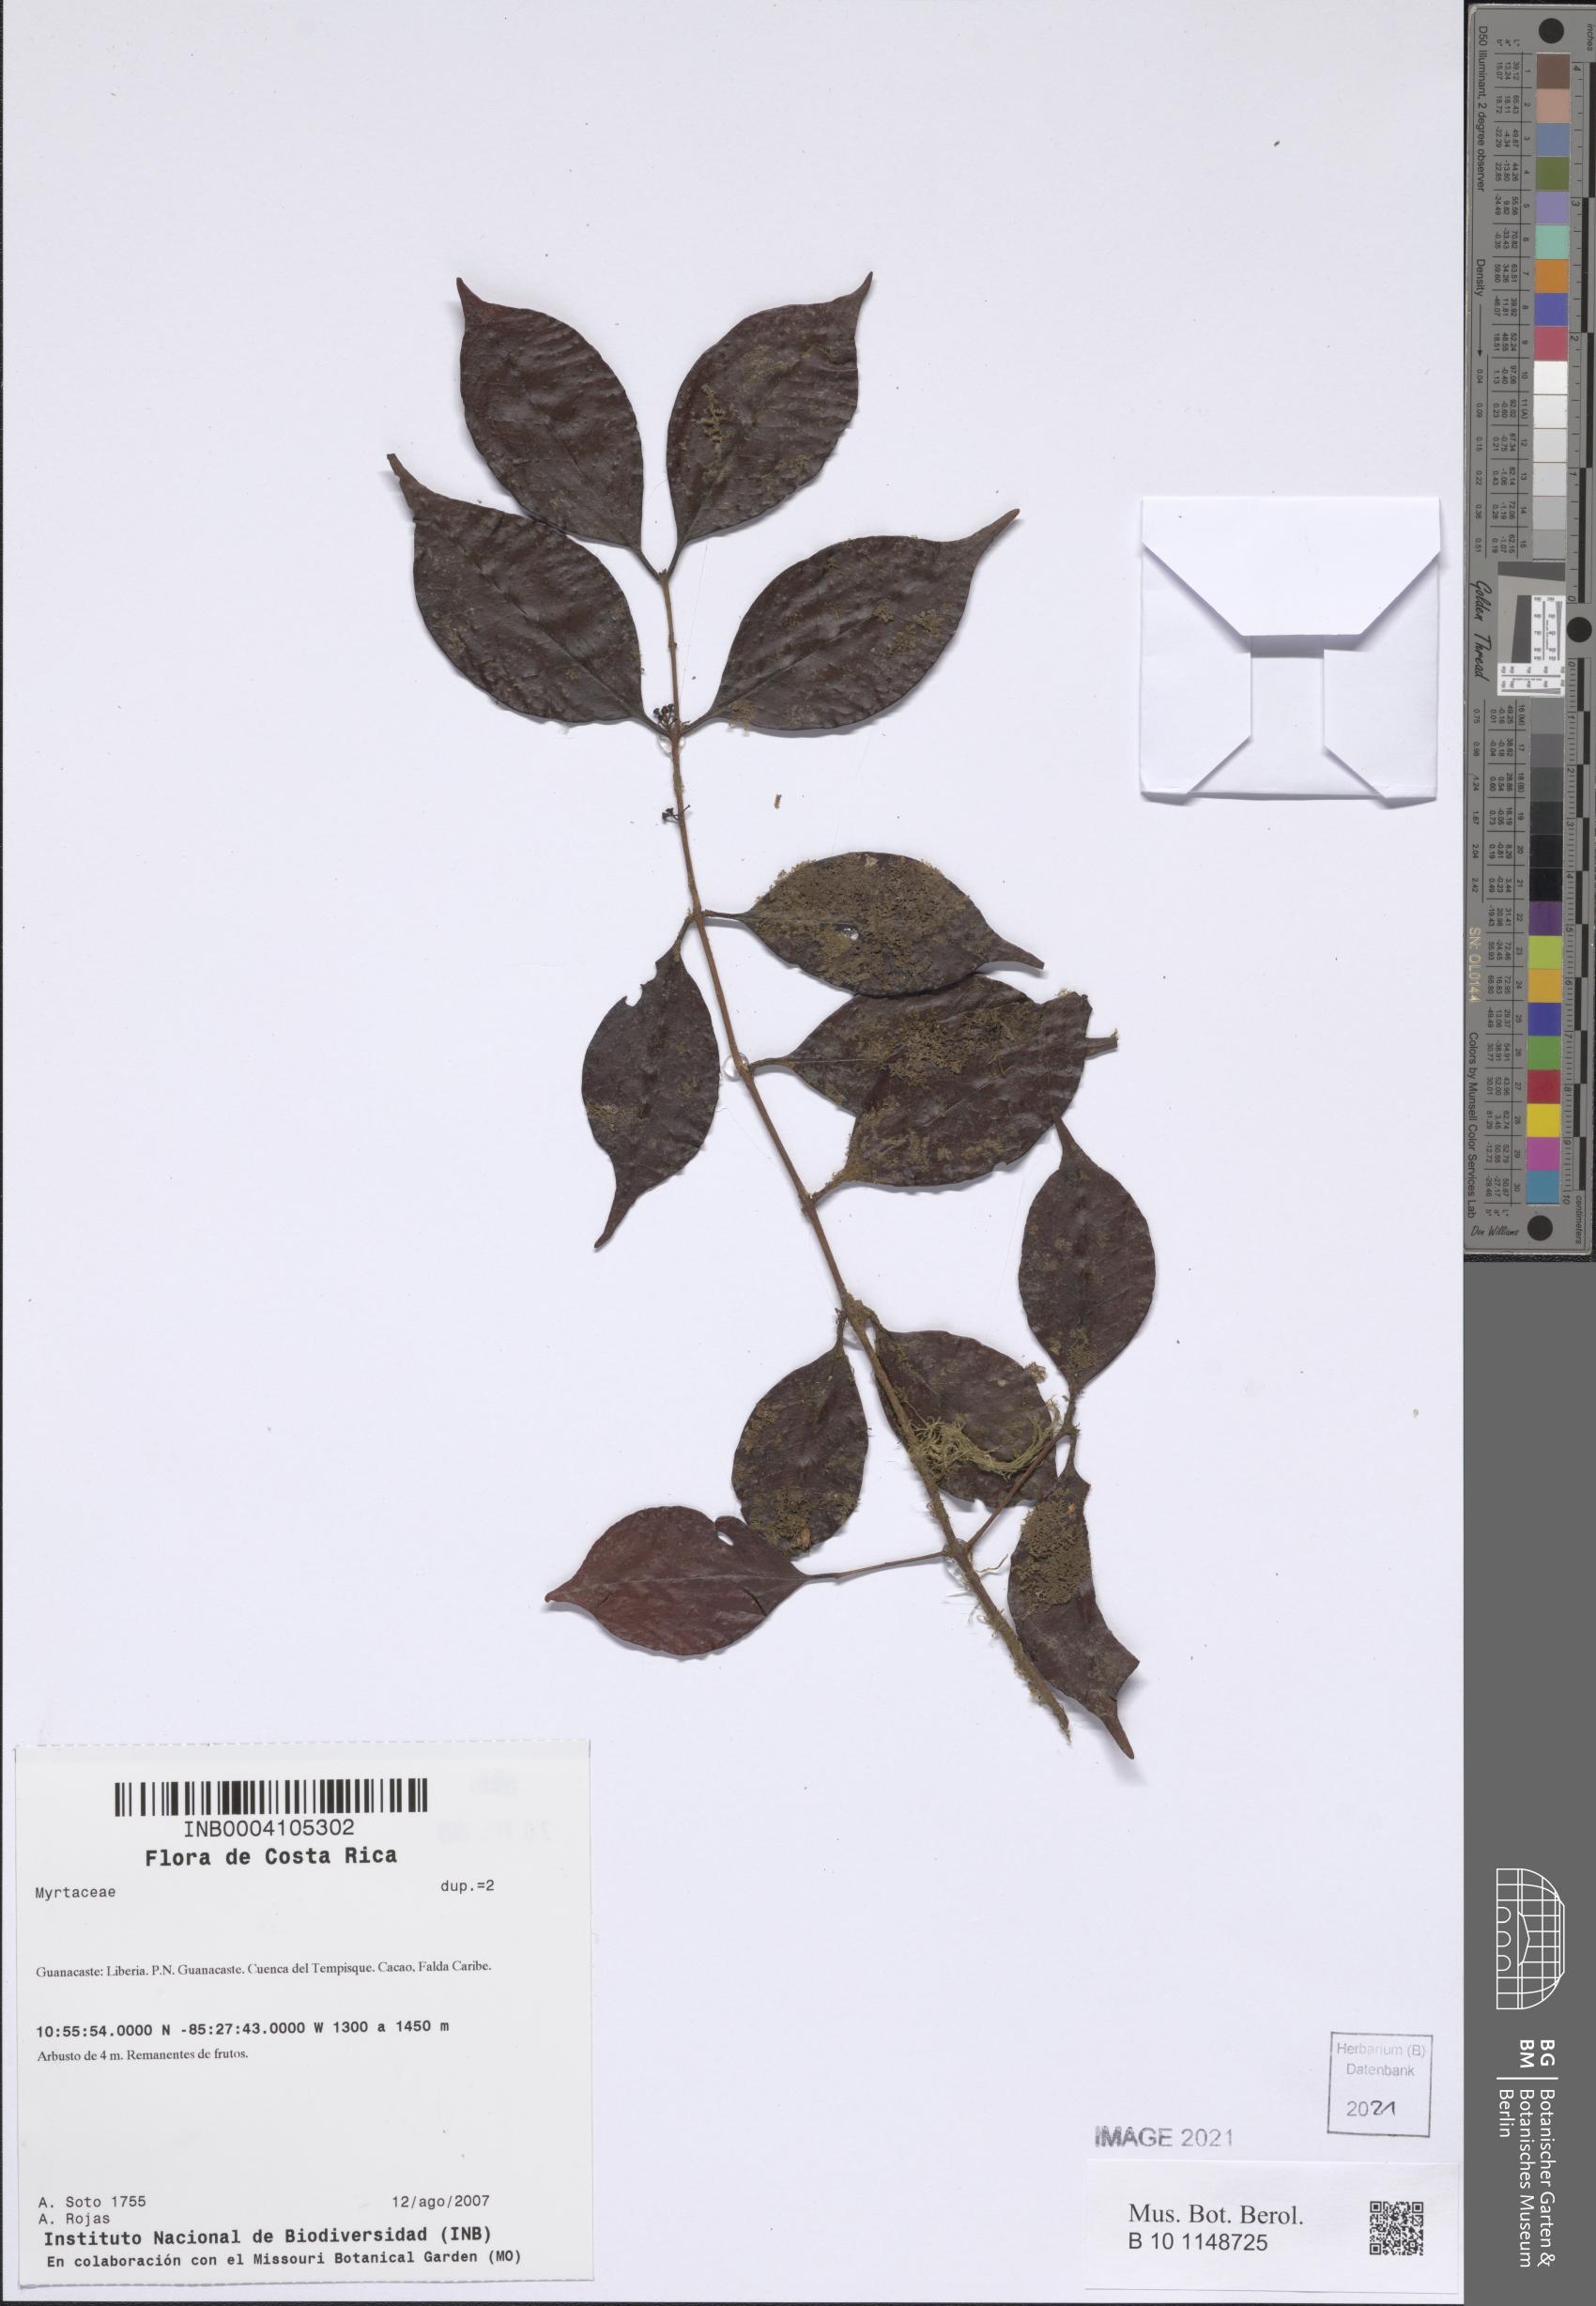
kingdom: Plantae
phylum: Tracheophyta
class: Magnoliopsida
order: Myrtales
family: Myrtaceae
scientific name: Myrtaceae
